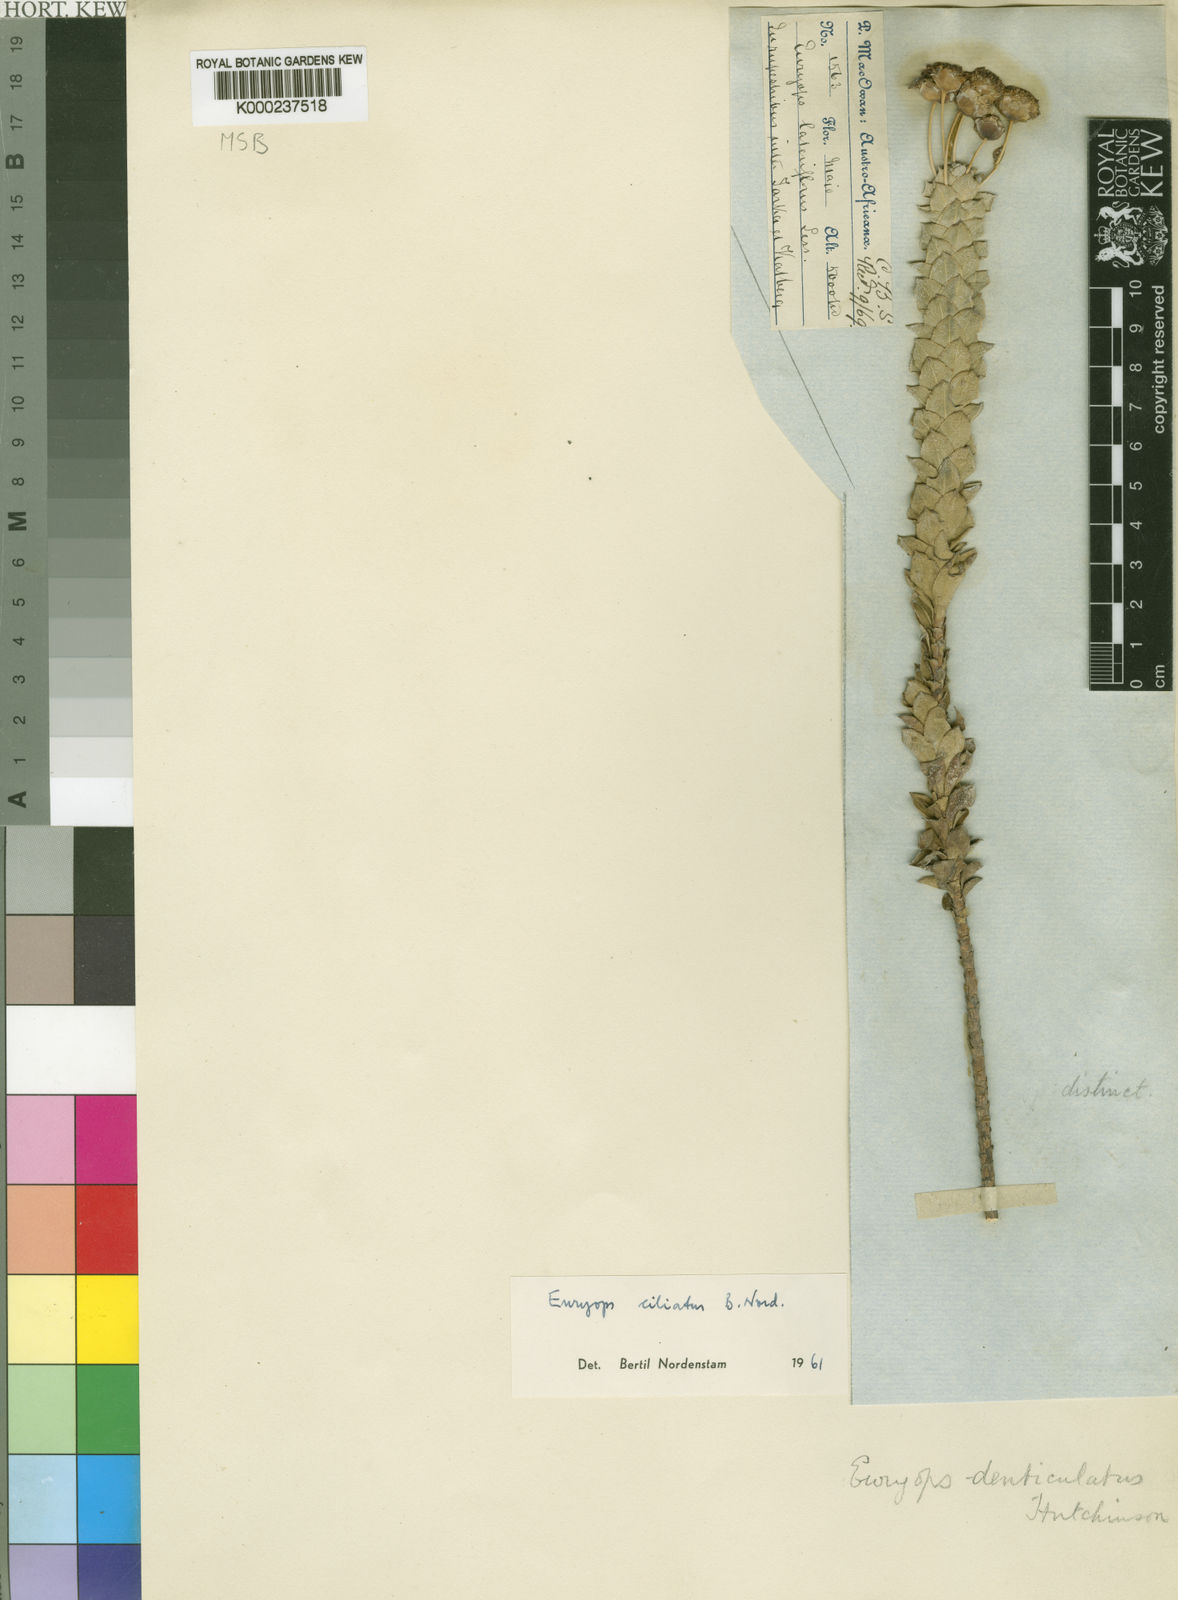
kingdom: Plantae
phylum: Tracheophyta
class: Magnoliopsida
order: Asterales
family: Asteraceae
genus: Euryops
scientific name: Euryops ciliatus
